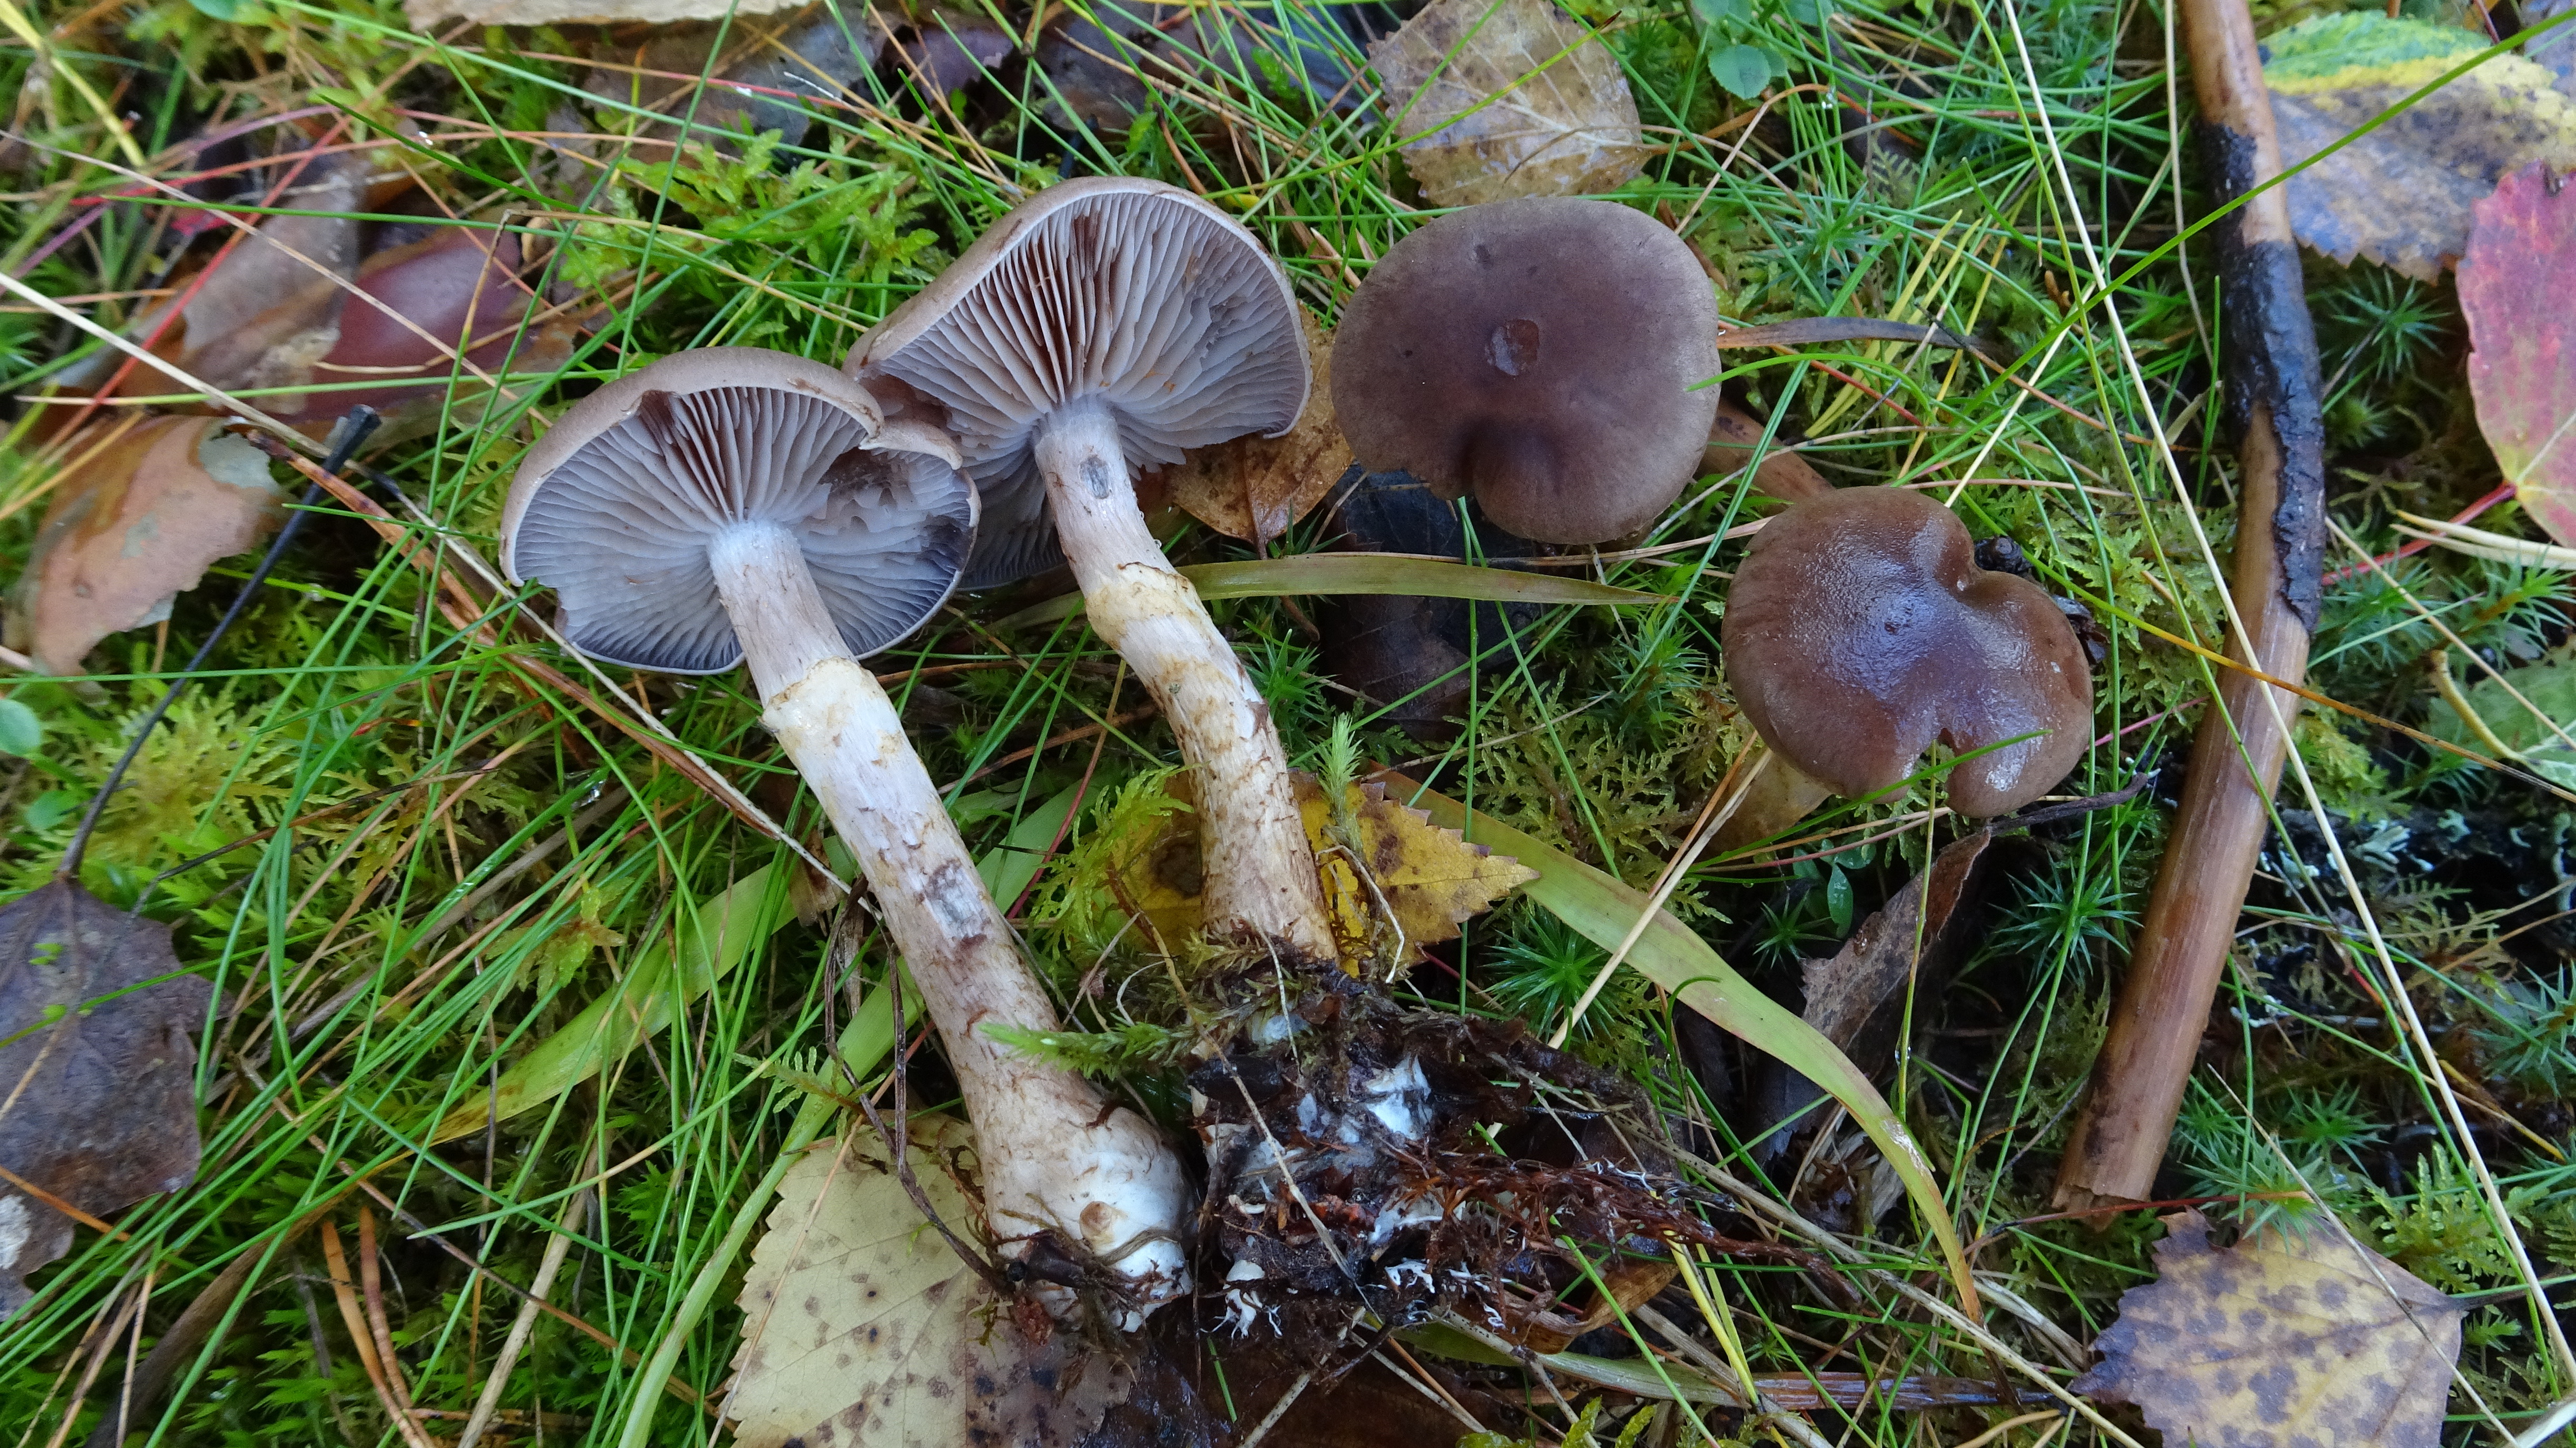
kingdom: Fungi
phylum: Basidiomycota
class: Agaricomycetes
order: Agaricales
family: Cortinariaceae
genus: Cortinarius
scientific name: Cortinarius anomalus
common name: Variable webcap
